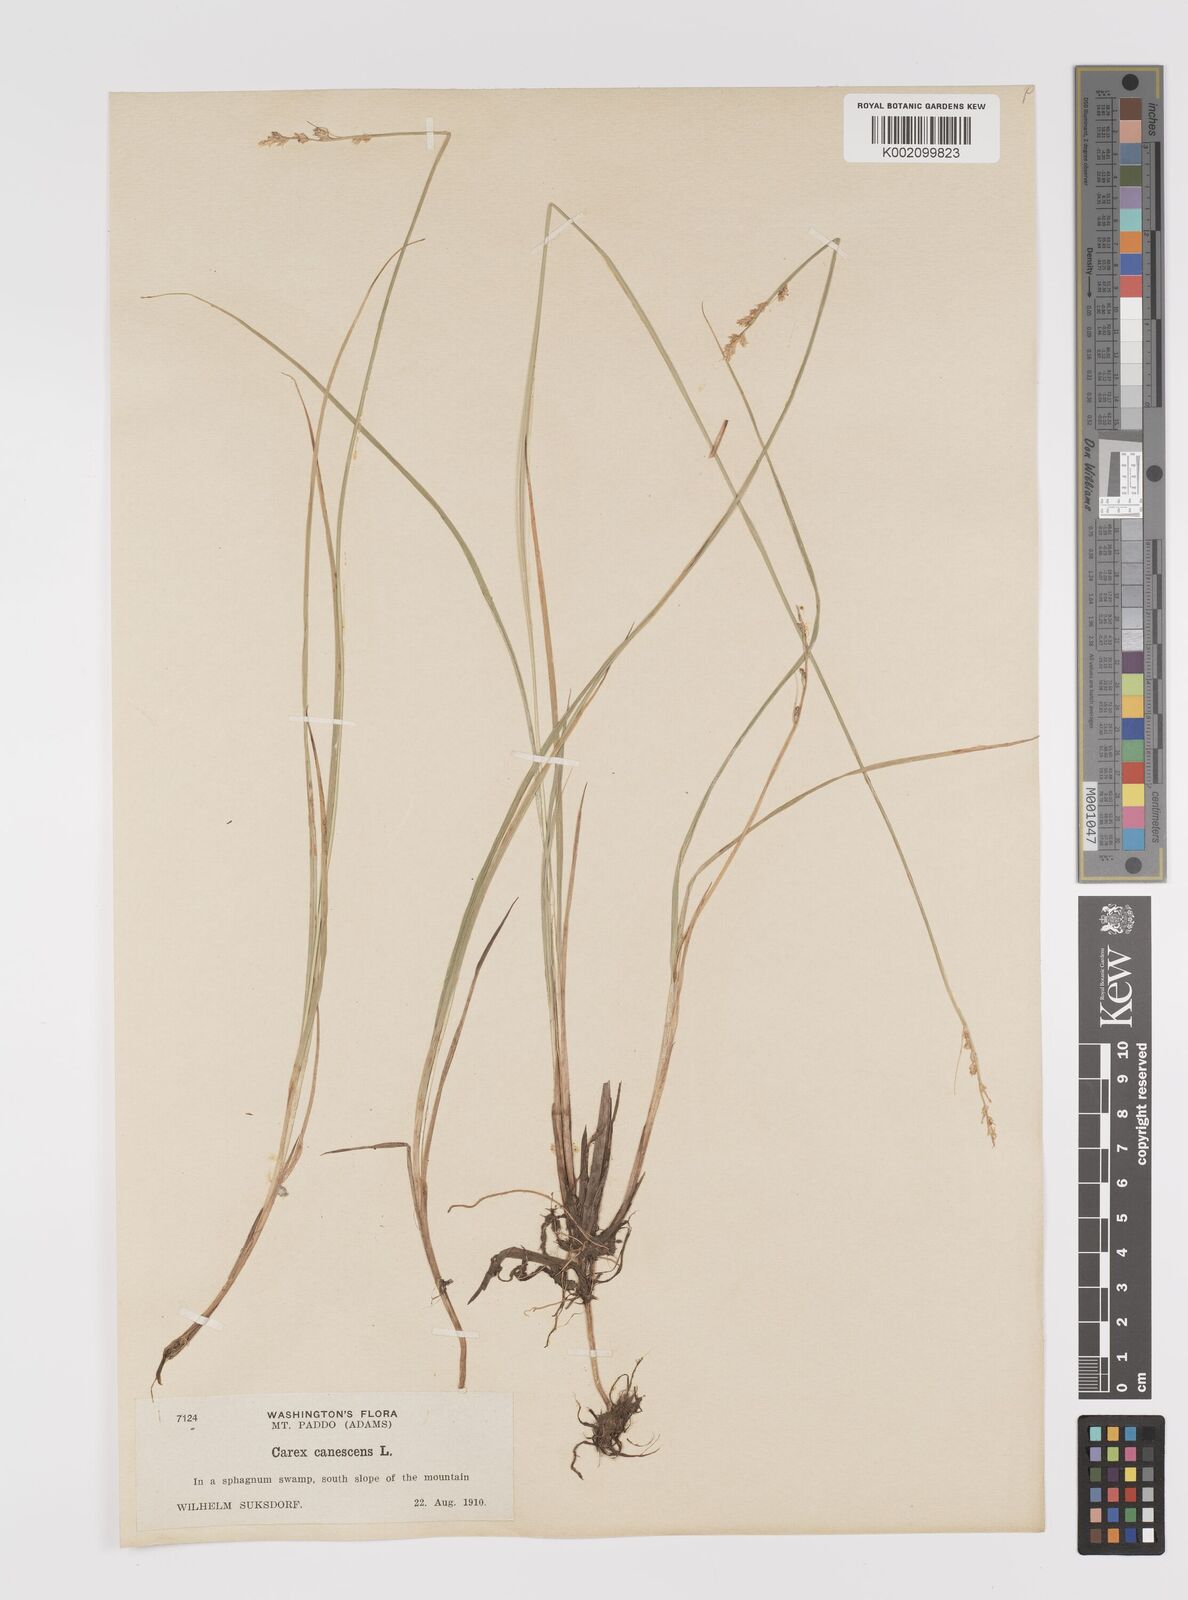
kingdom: Plantae
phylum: Tracheophyta
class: Liliopsida
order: Poales
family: Cyperaceae
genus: Carex
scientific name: Carex curta
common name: White sedge
